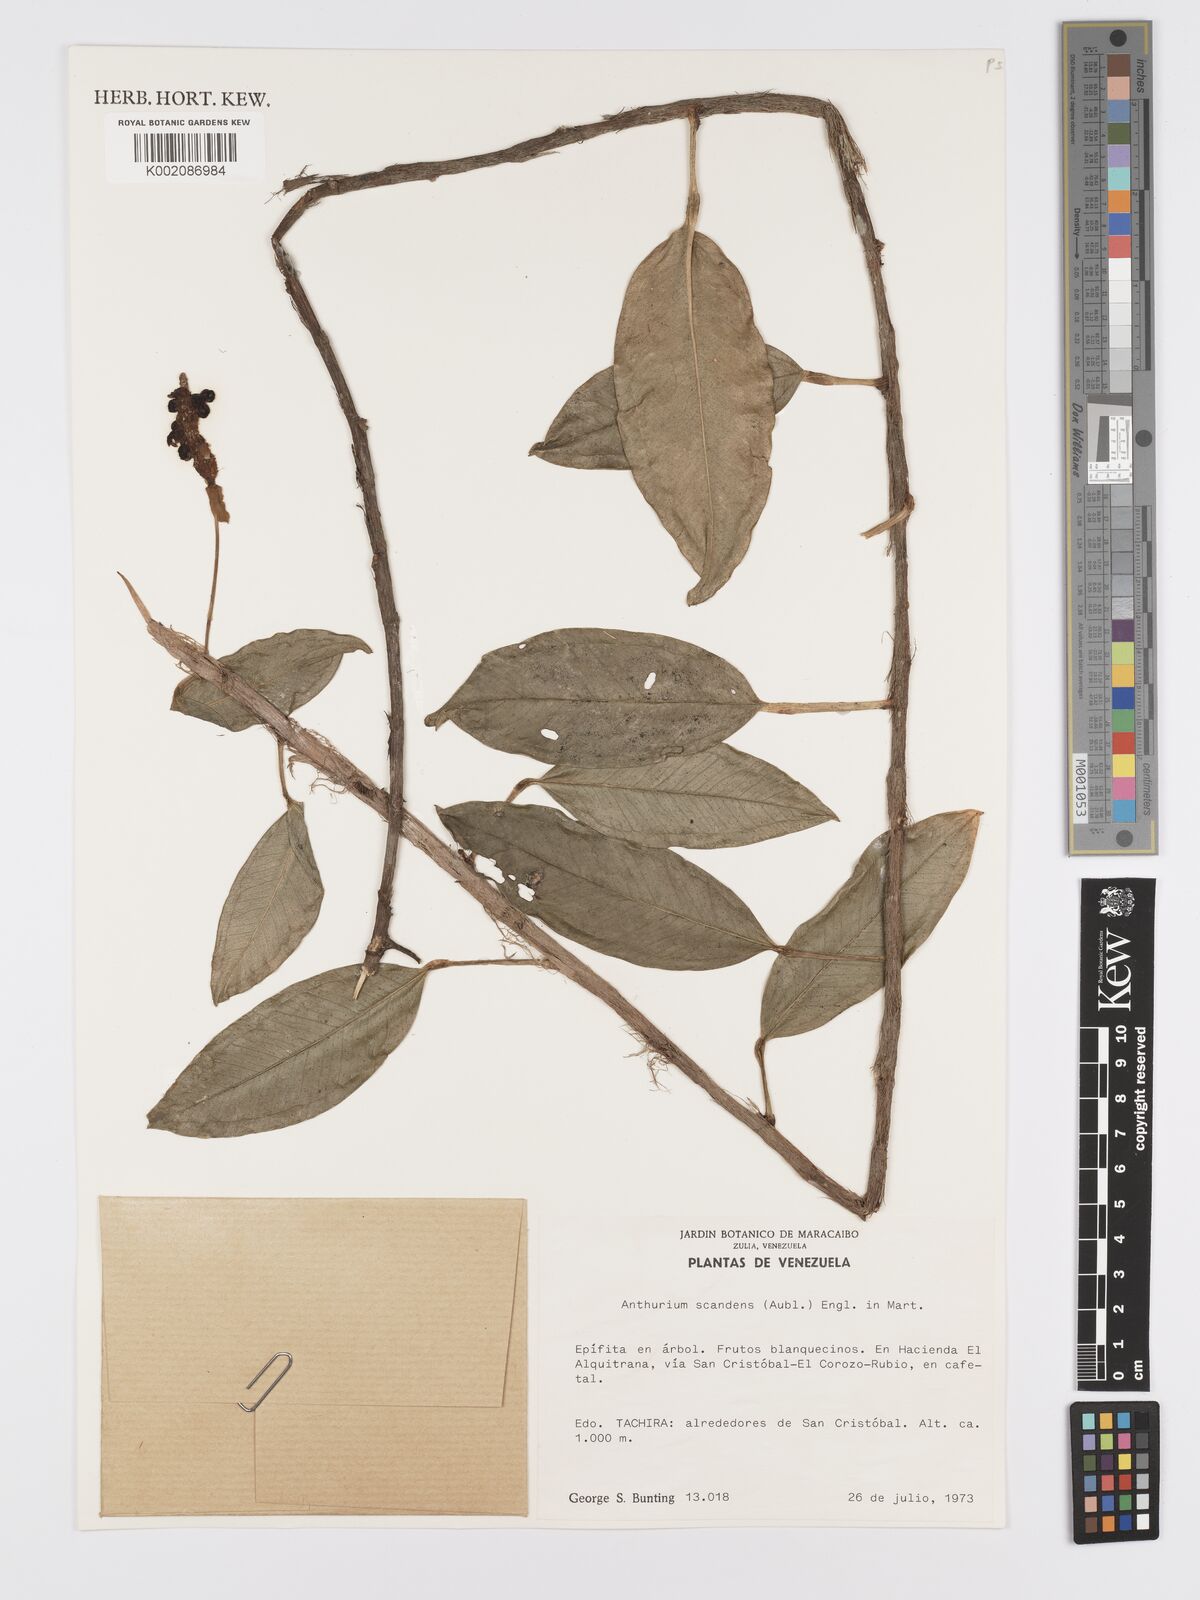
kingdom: Plantae
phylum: Tracheophyta
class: Liliopsida
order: Alismatales
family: Araceae
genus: Anthurium
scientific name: Anthurium scandens
